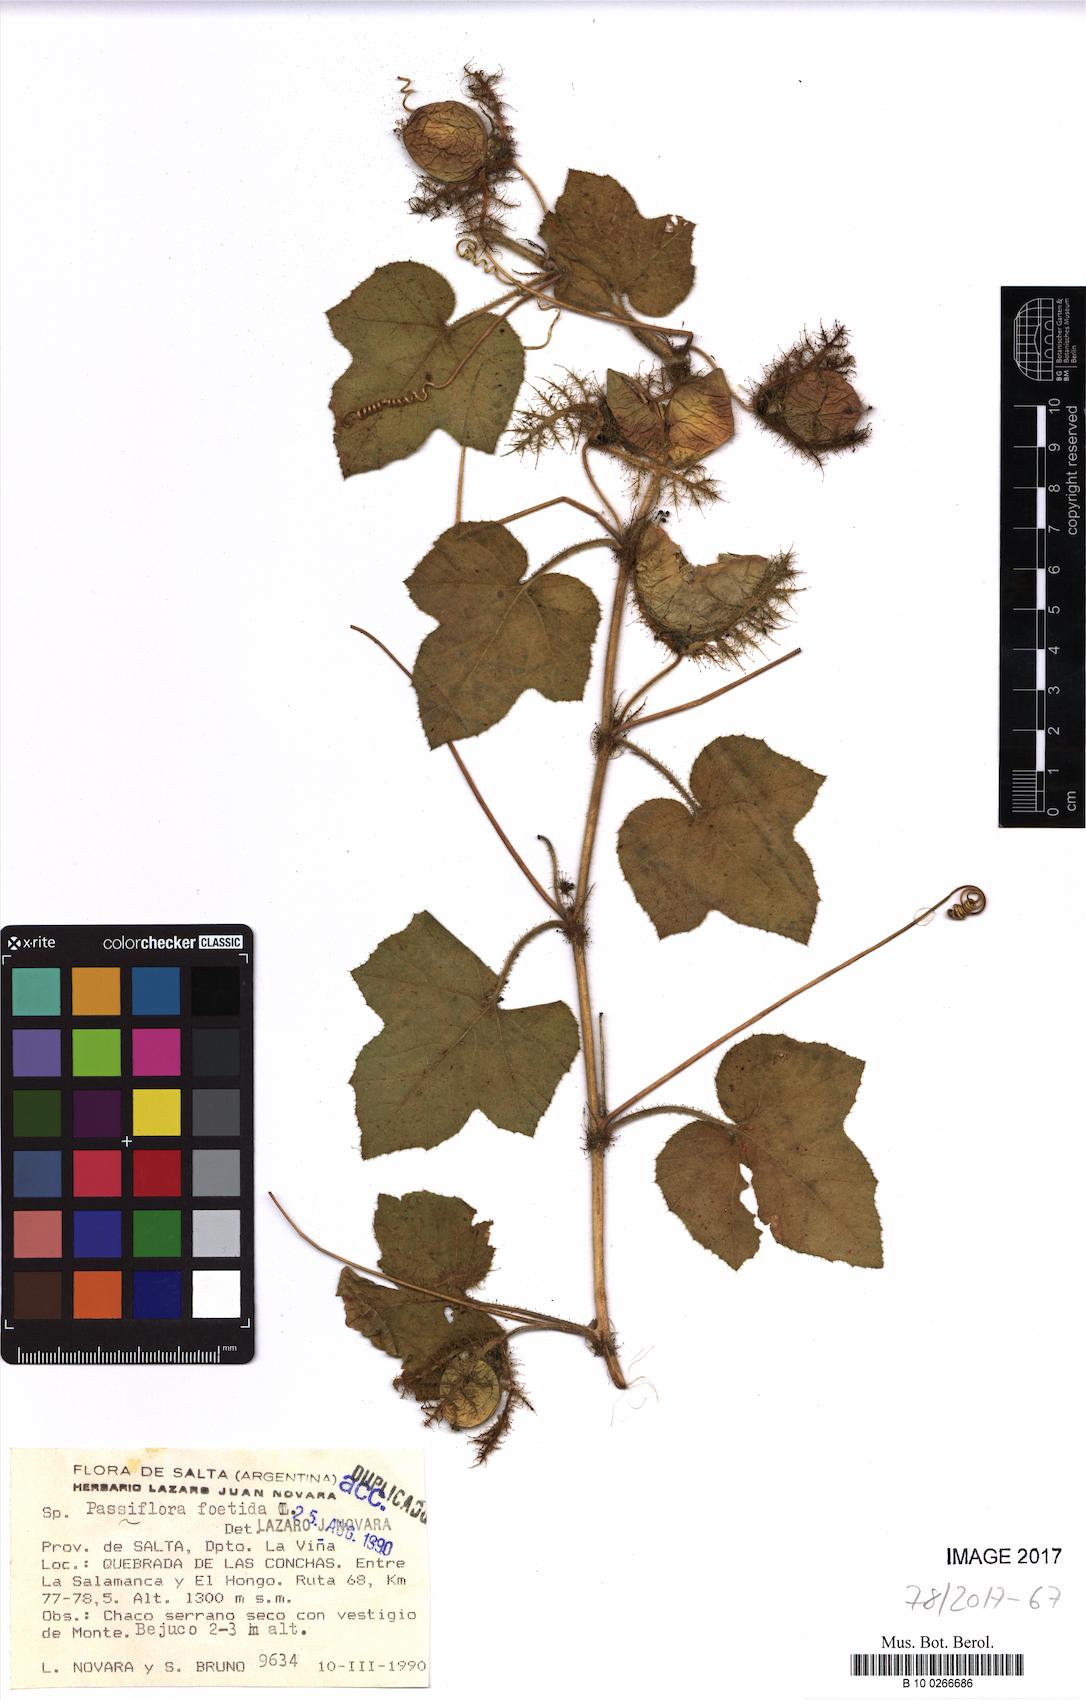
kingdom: Plantae
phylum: Tracheophyta
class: Magnoliopsida
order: Malpighiales
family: Passifloraceae
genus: Passiflora
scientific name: Passiflora foetida
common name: Fetid passionflower
